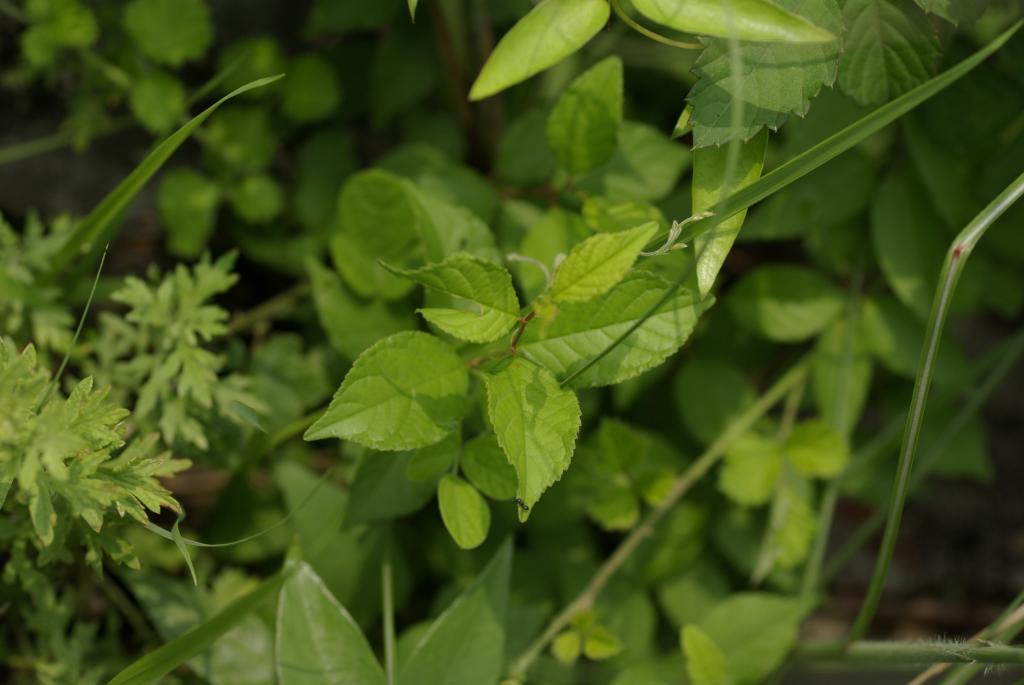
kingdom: Plantae
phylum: Tracheophyta
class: Magnoliopsida
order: Rosales
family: Rosaceae
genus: Prunus
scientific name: Prunus japonica
